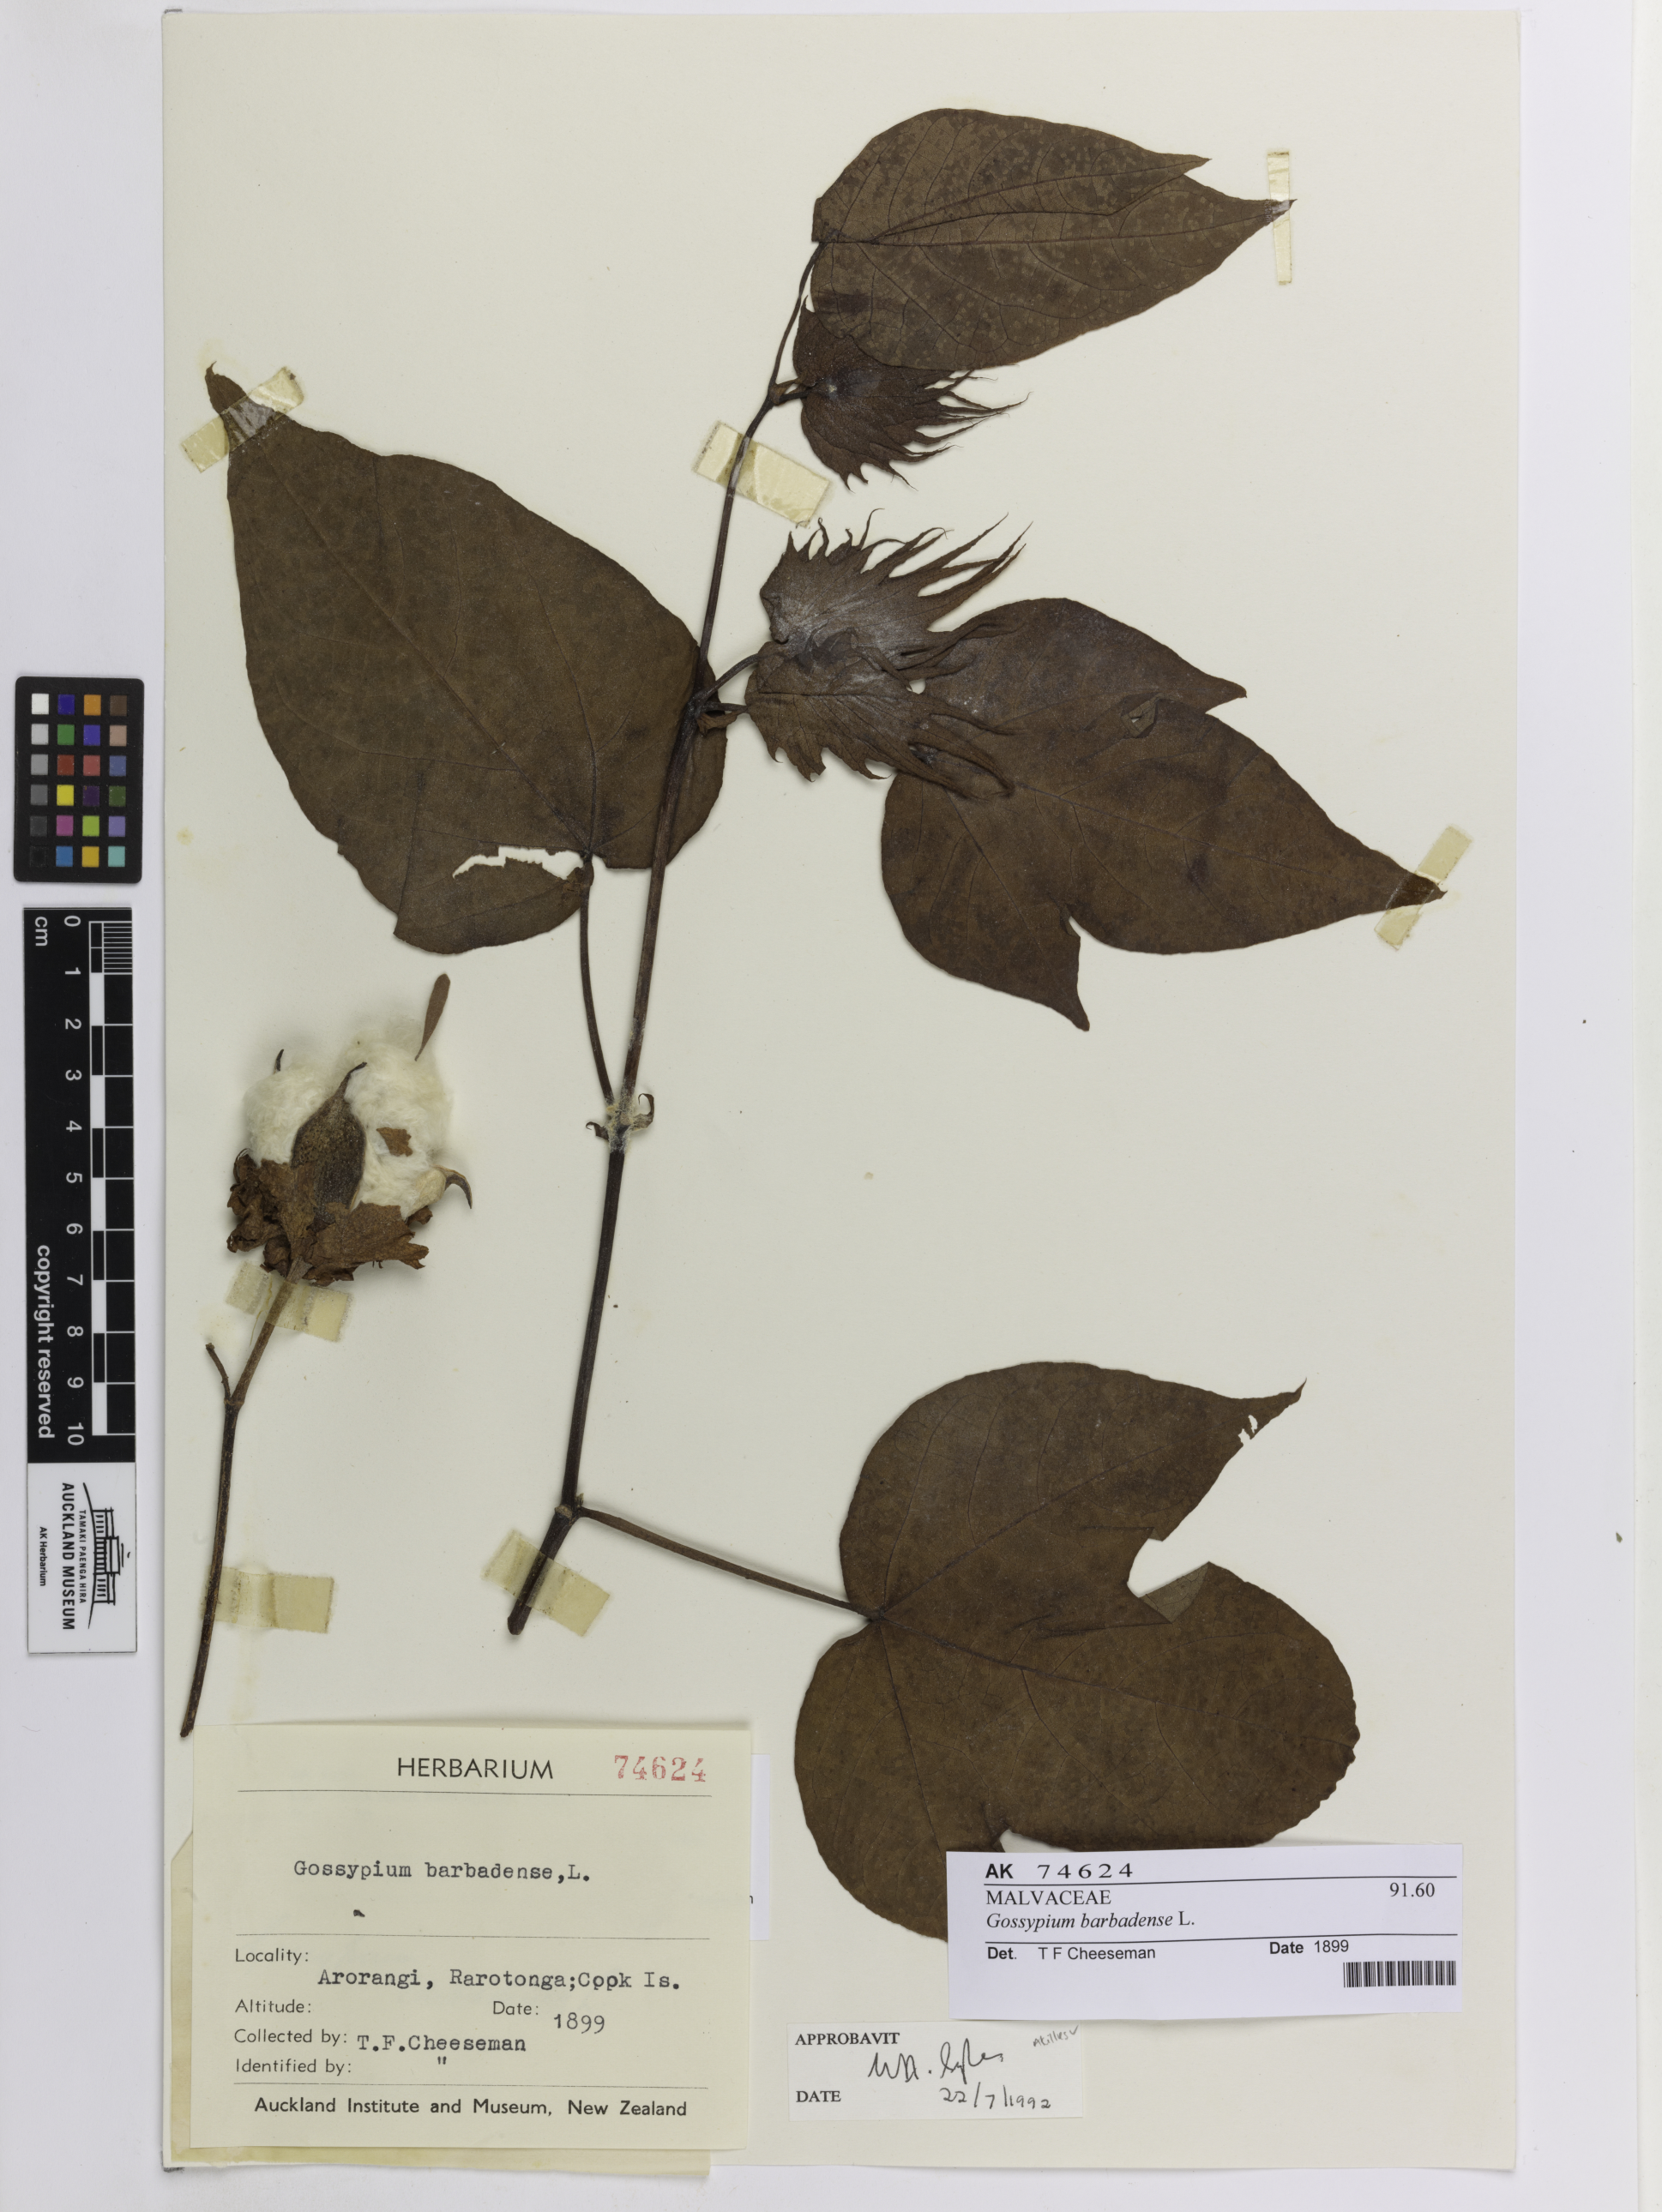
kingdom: Plantae
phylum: Tracheophyta
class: Magnoliopsida
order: Malvales
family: Malvaceae
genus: Gossypium
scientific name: Gossypium barbadense
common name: Creole cotton
